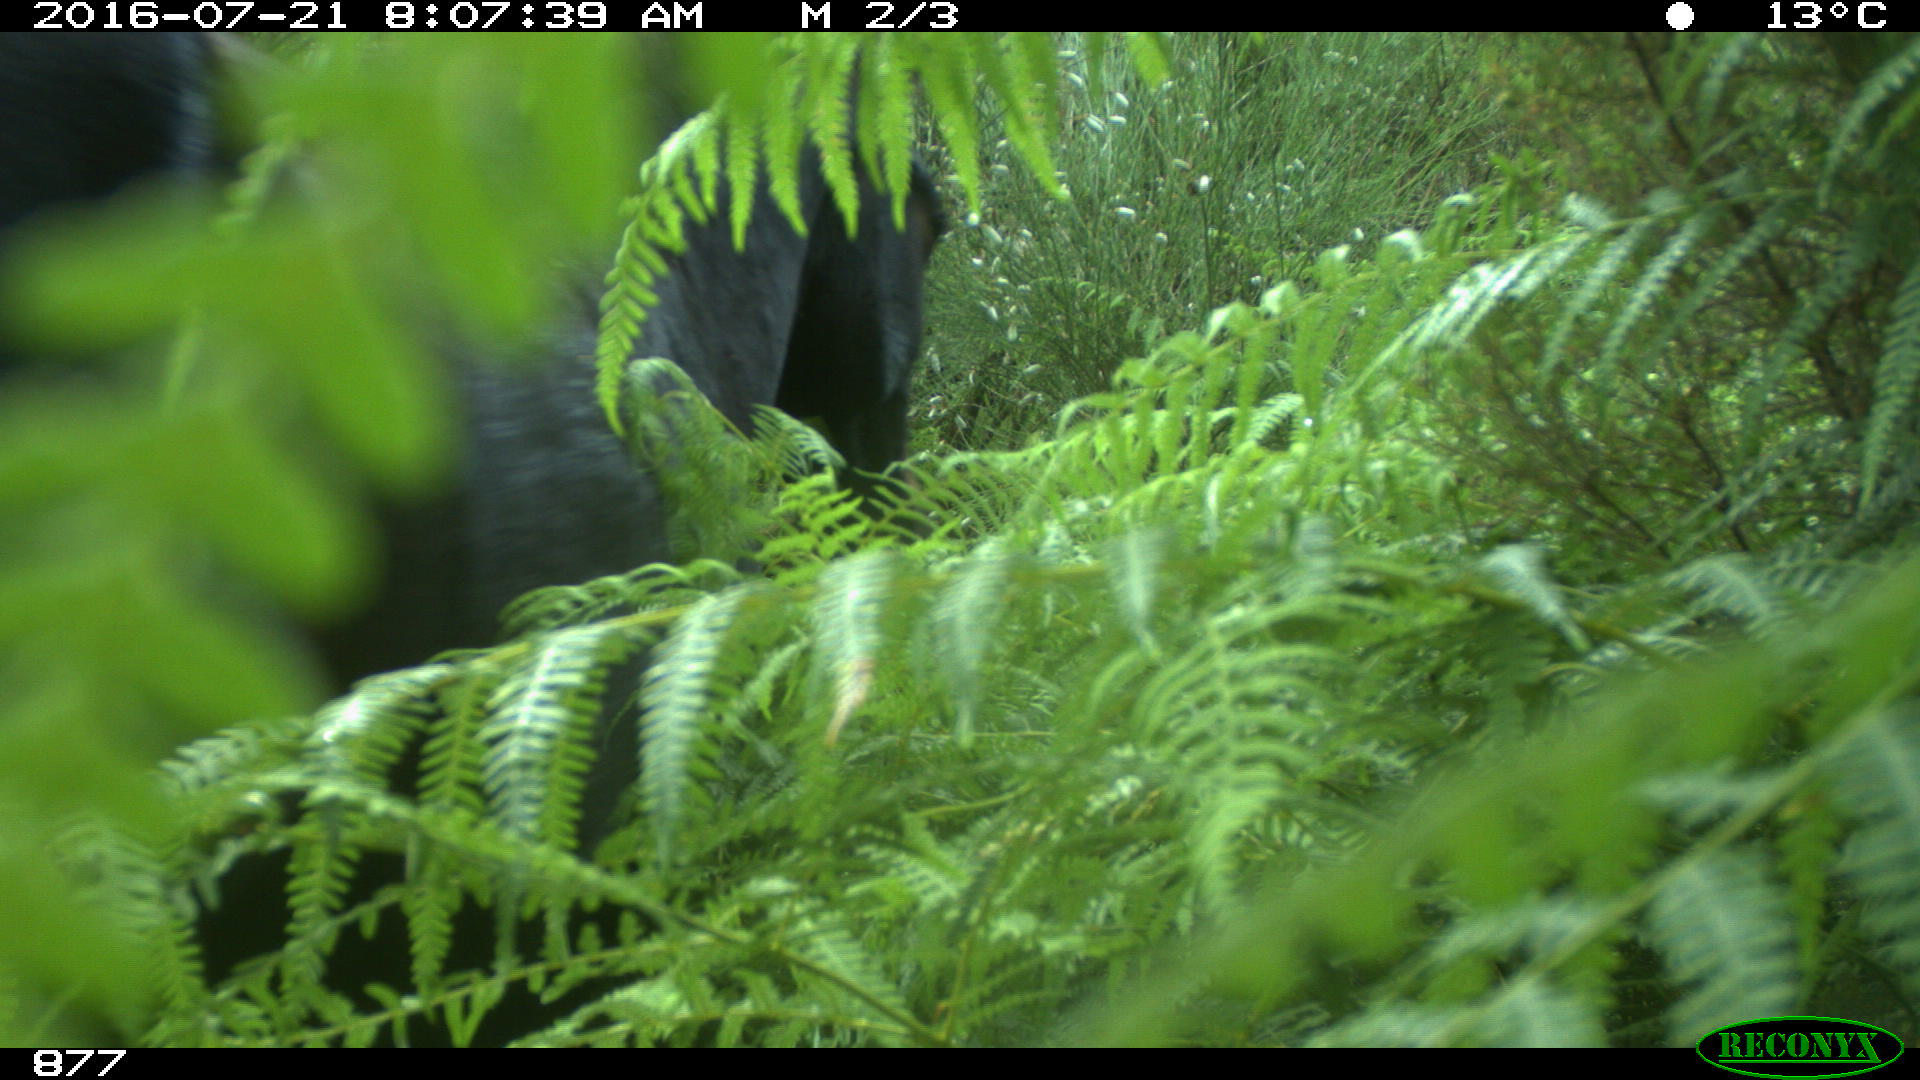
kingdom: Animalia
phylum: Chordata
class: Mammalia
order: Perissodactyla
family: Equidae
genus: Equus
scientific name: Equus caballus
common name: Horse
